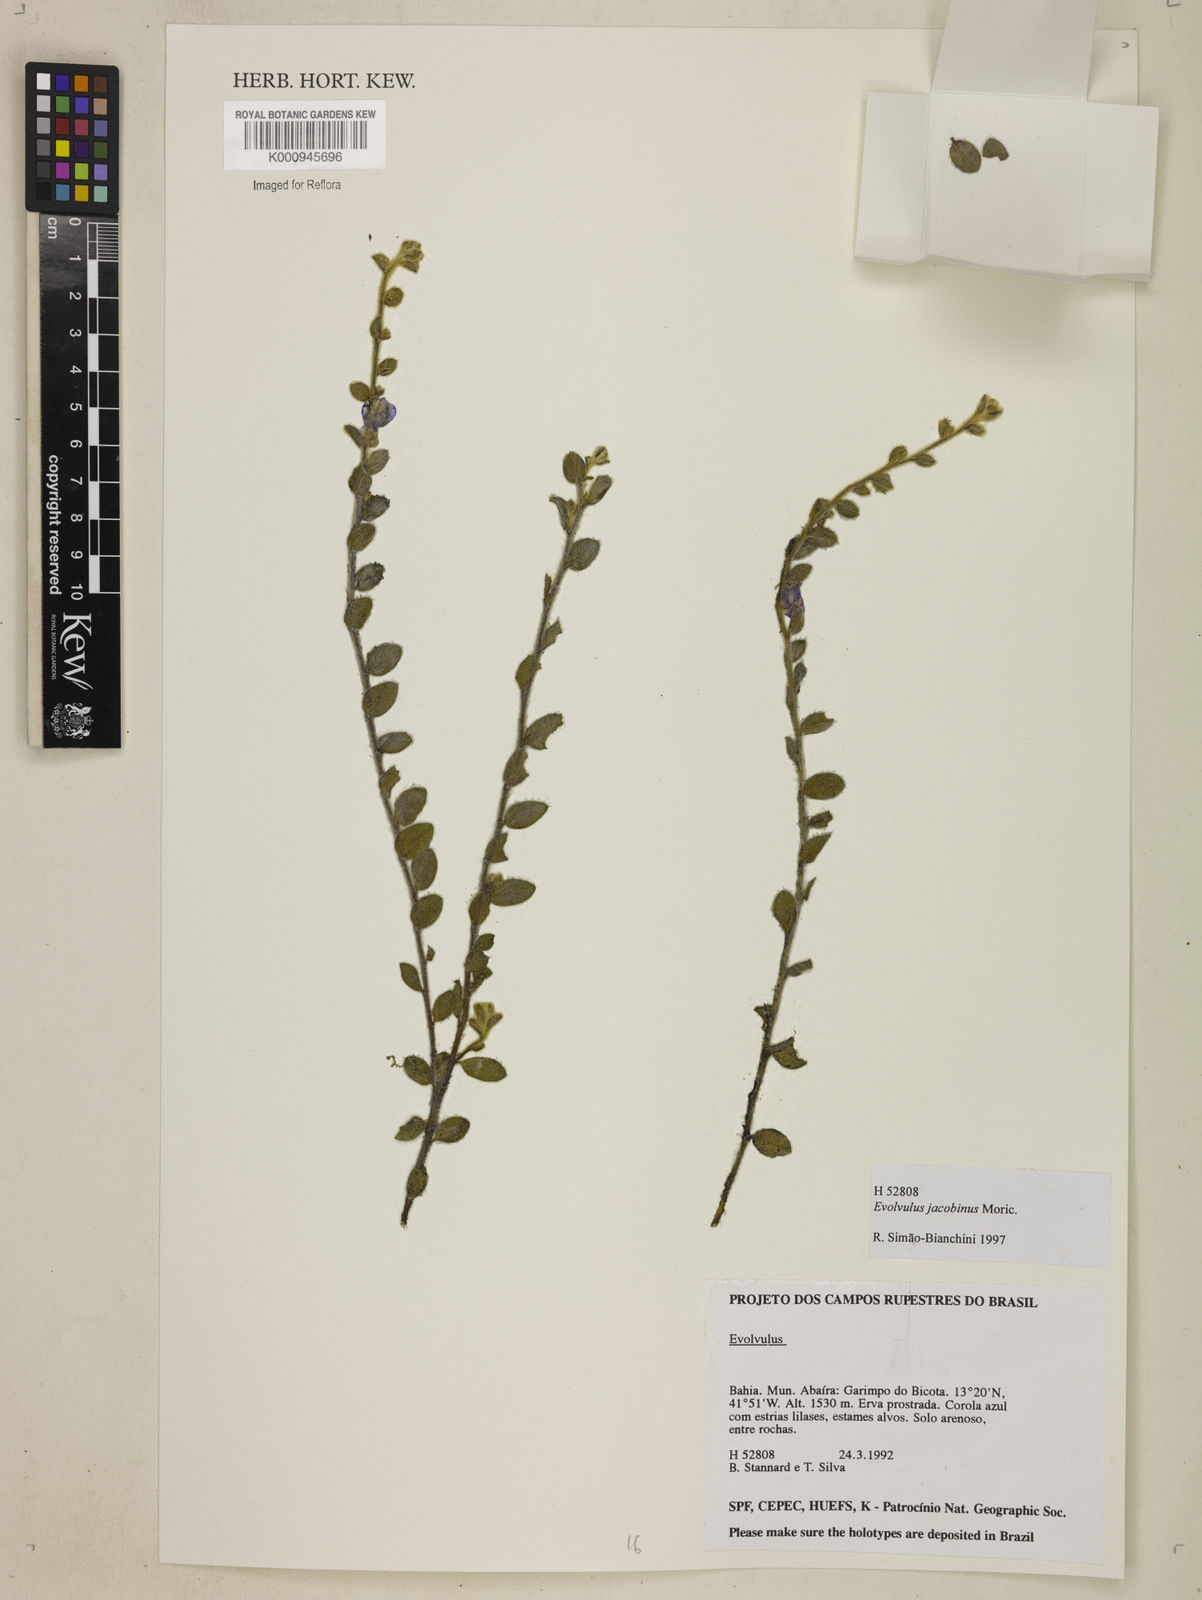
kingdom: Plantae
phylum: Tracheophyta
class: Magnoliopsida
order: Solanales
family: Convolvulaceae
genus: Evolvulus
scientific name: Evolvulus jacobinus
